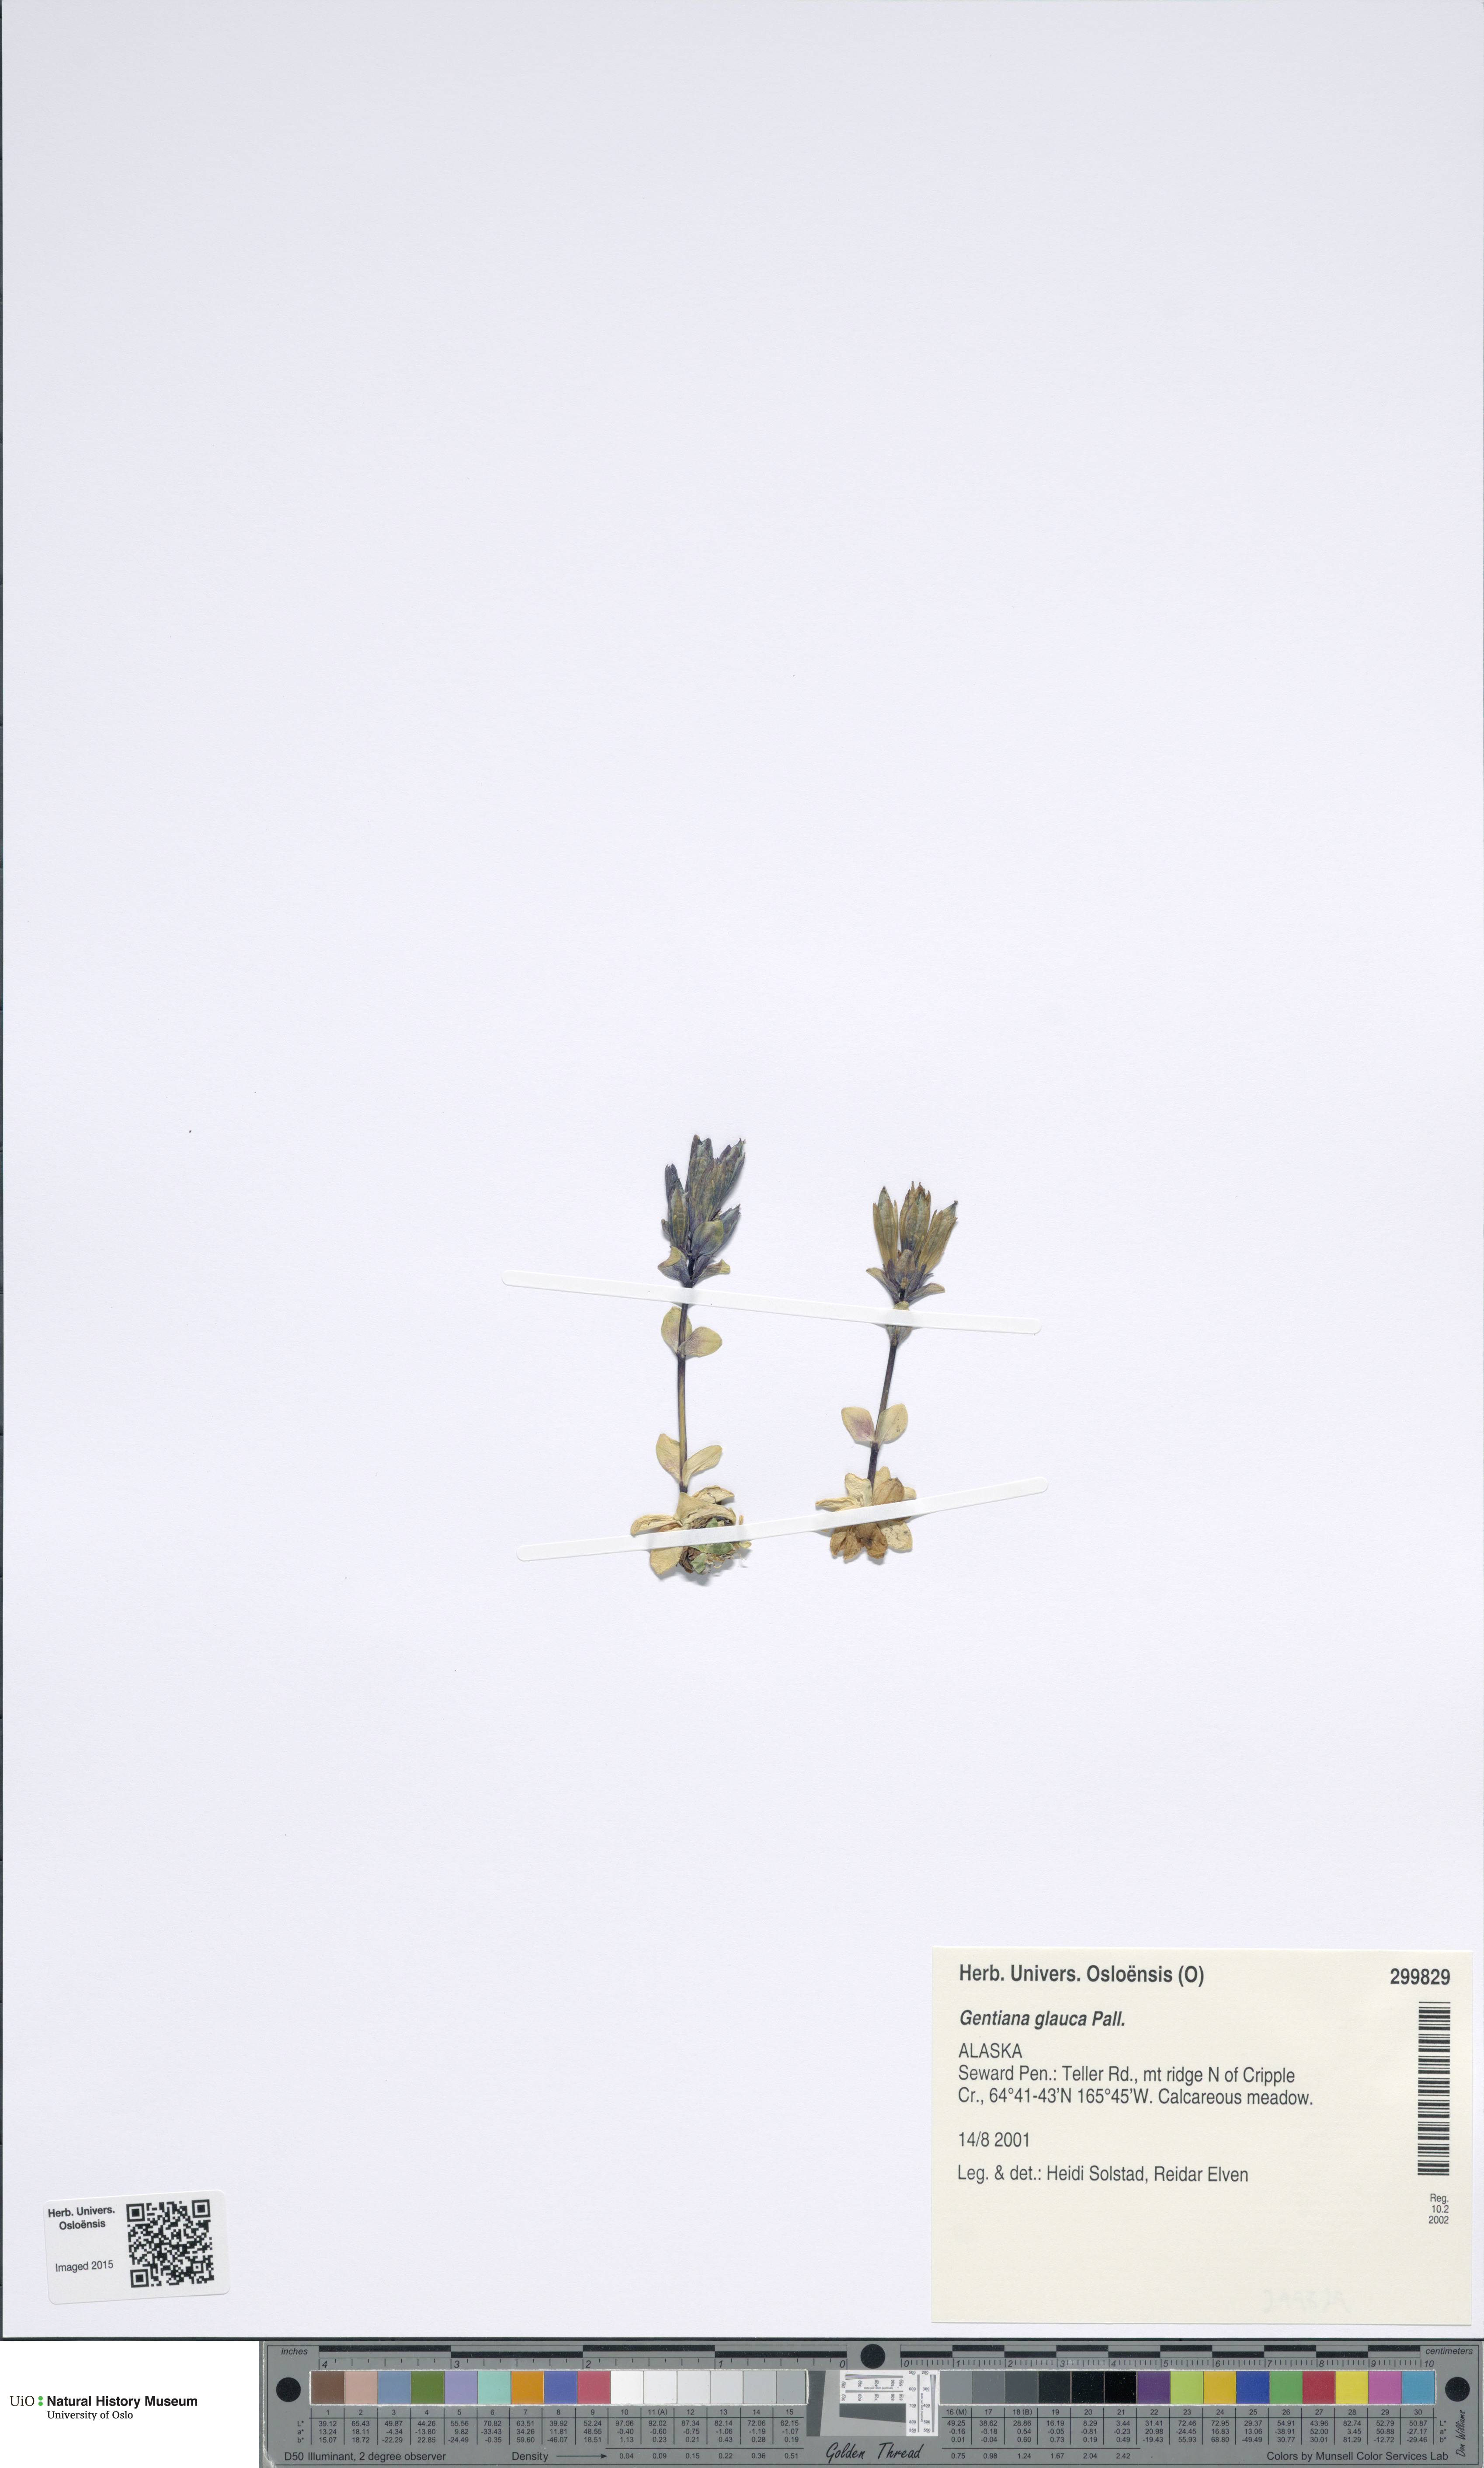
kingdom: Plantae
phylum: Tracheophyta
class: Magnoliopsida
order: Gentianales
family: Gentianaceae
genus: Gentiana
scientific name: Gentiana glauca
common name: Alpine gentian
